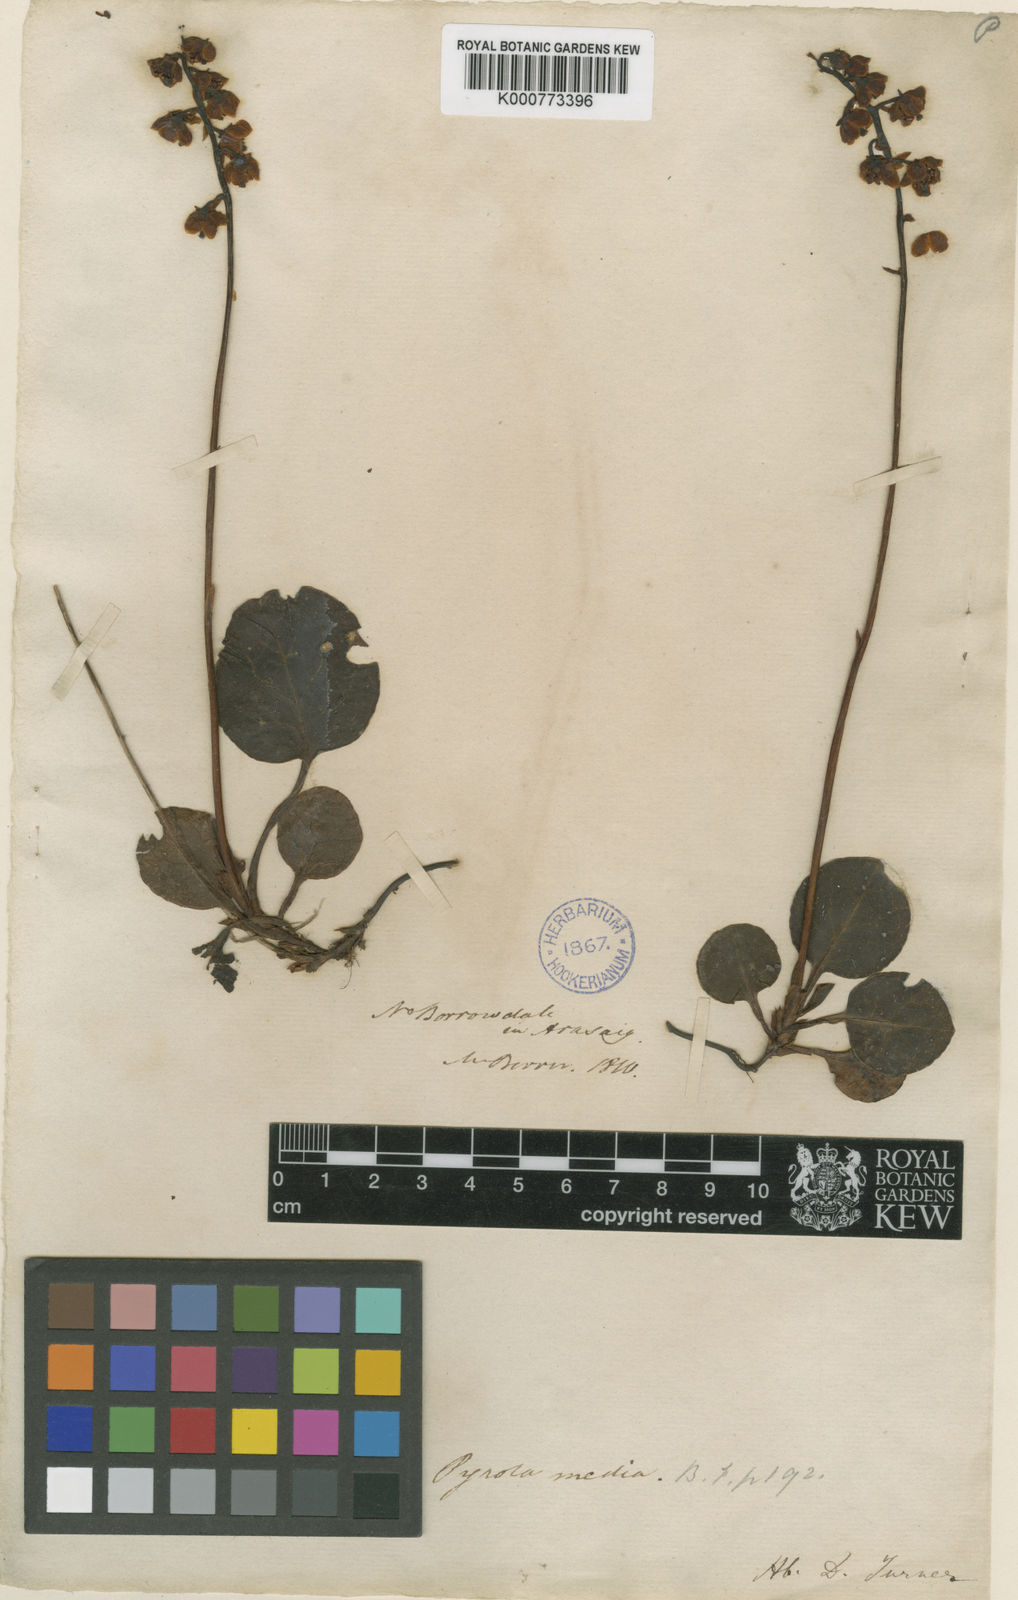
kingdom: Plantae
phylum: Tracheophyta
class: Magnoliopsida
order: Ericales
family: Ericaceae
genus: Pyrola
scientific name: Pyrola media
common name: Intermediate wintergreen
